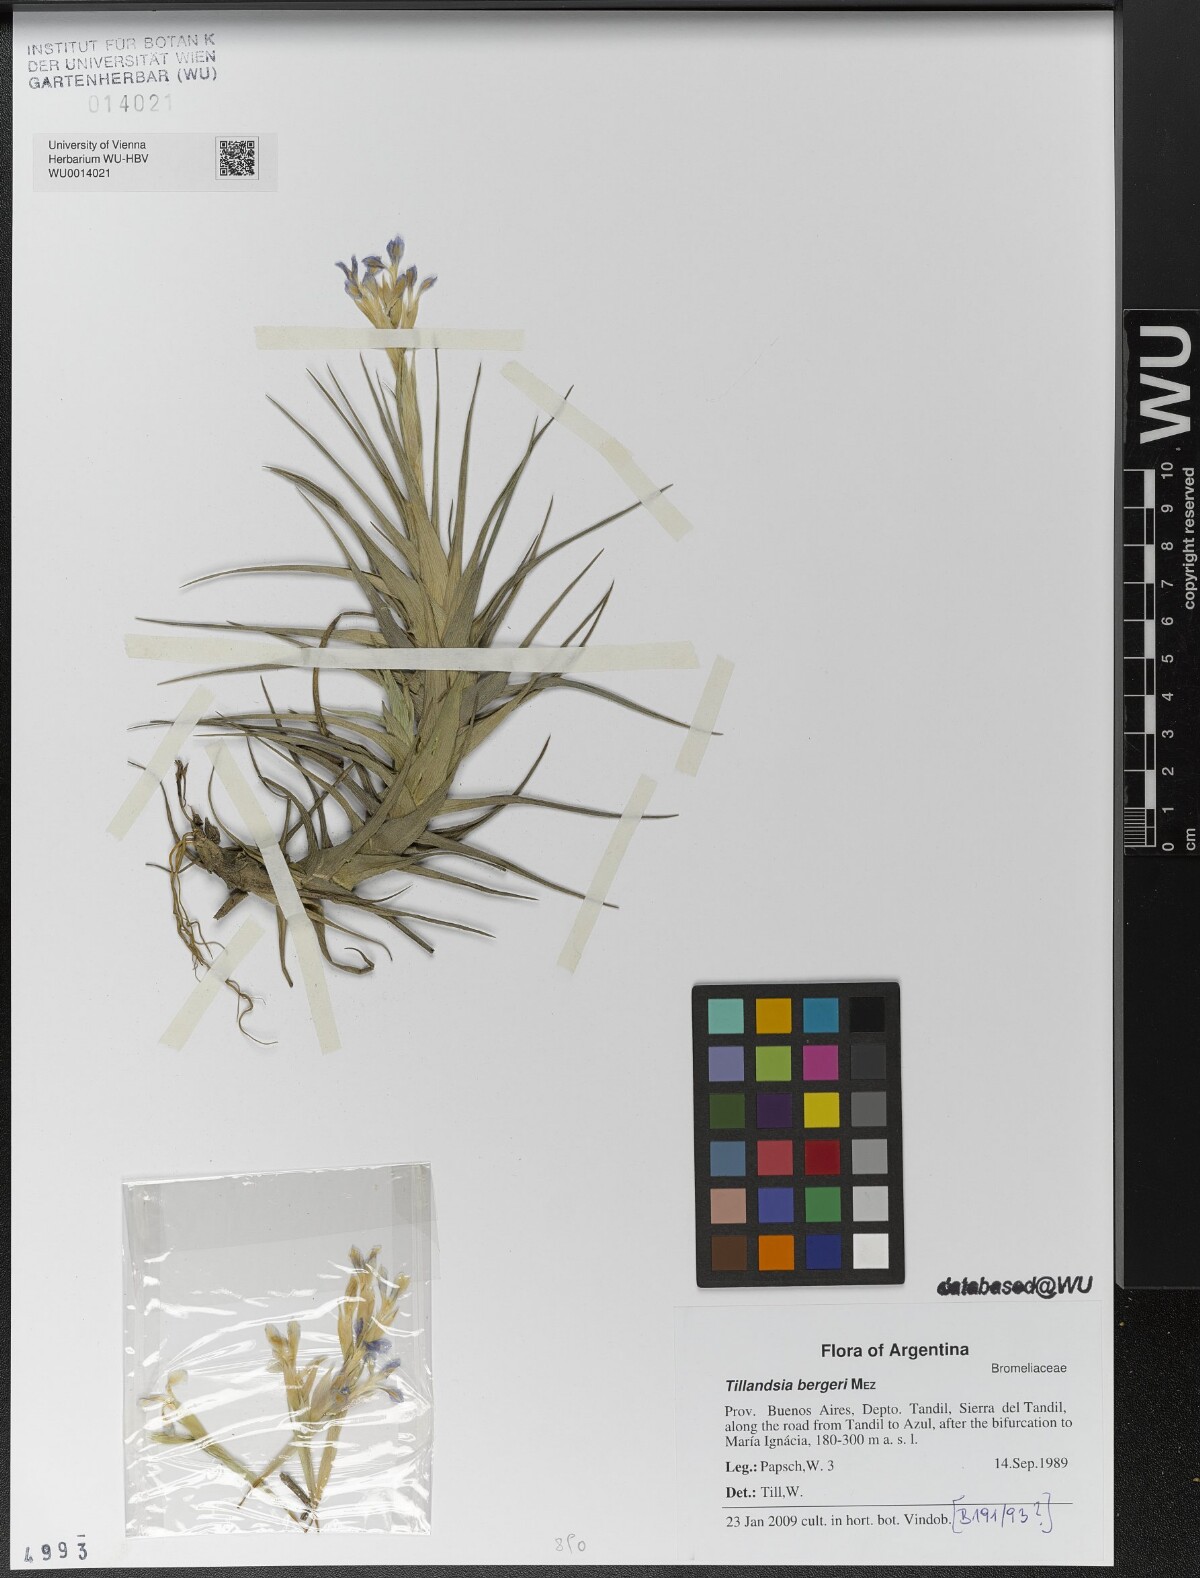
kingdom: Plantae
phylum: Tracheophyta
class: Liliopsida
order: Poales
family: Bromeliaceae
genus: Tillandsia
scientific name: Tillandsia bergeri
